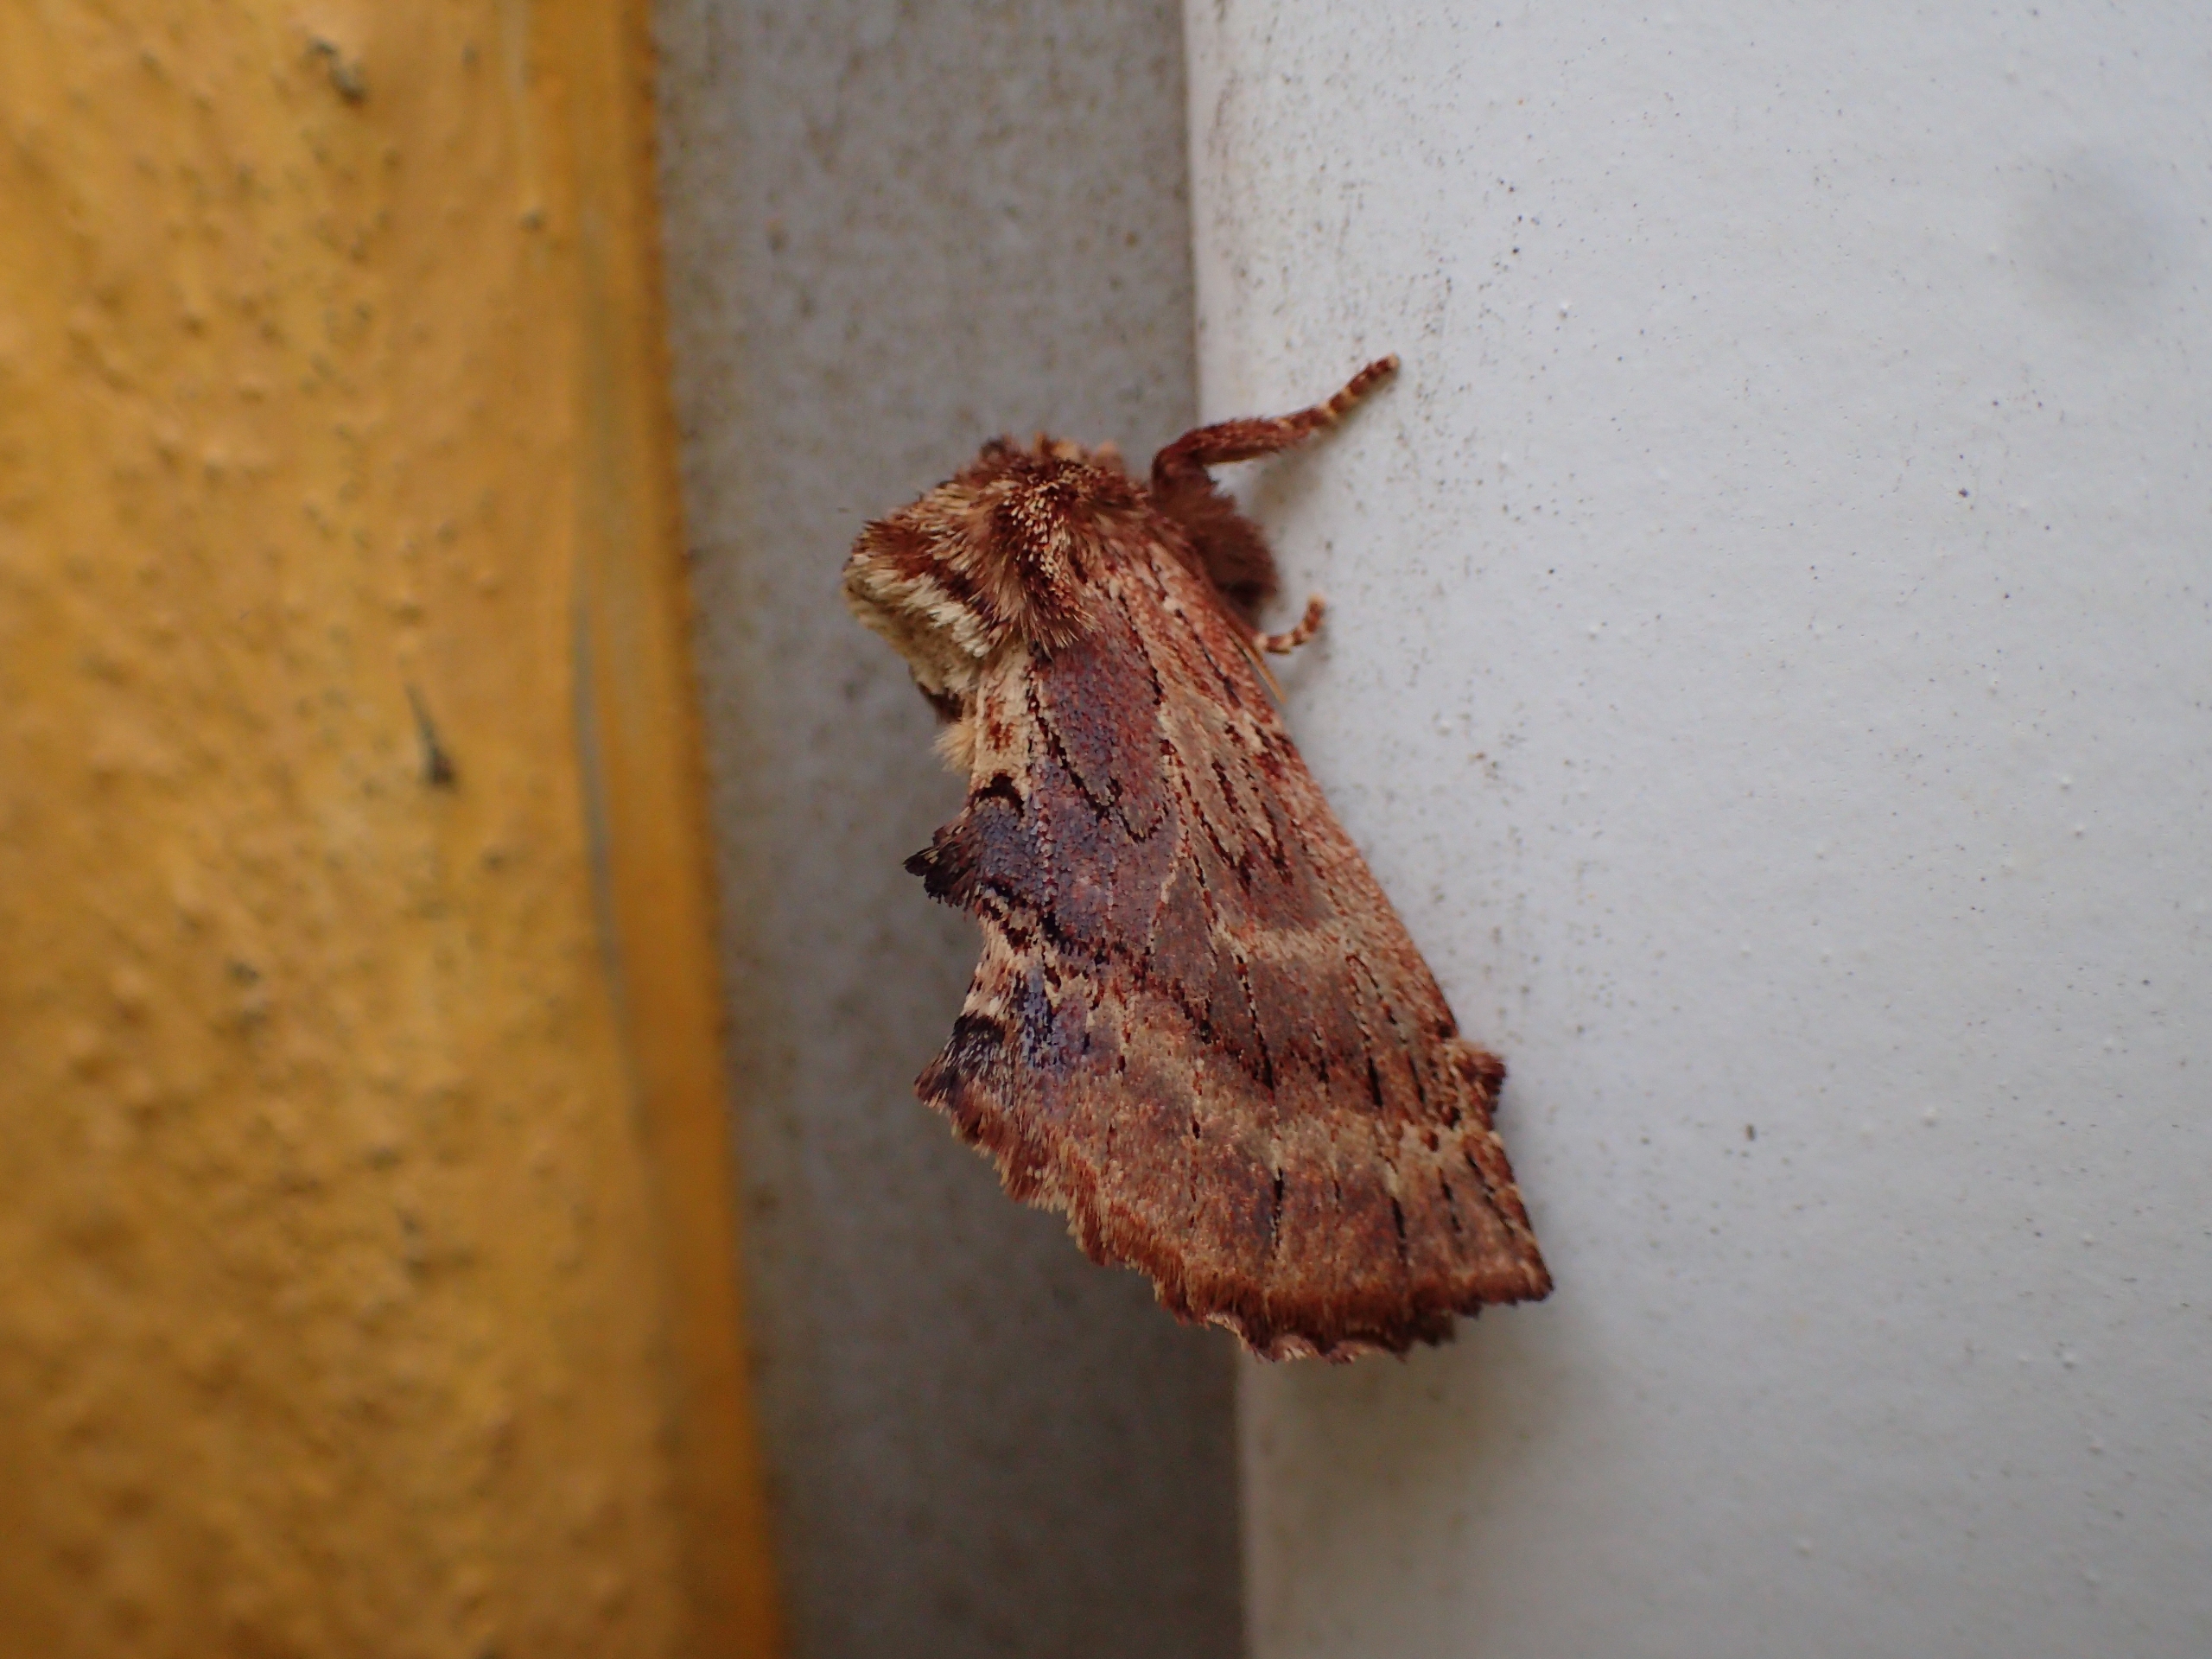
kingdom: Animalia
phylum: Arthropoda
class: Insecta
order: Lepidoptera
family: Notodontidae
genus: Ptilodon
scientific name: Ptilodon capucina
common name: Kamelspinder
